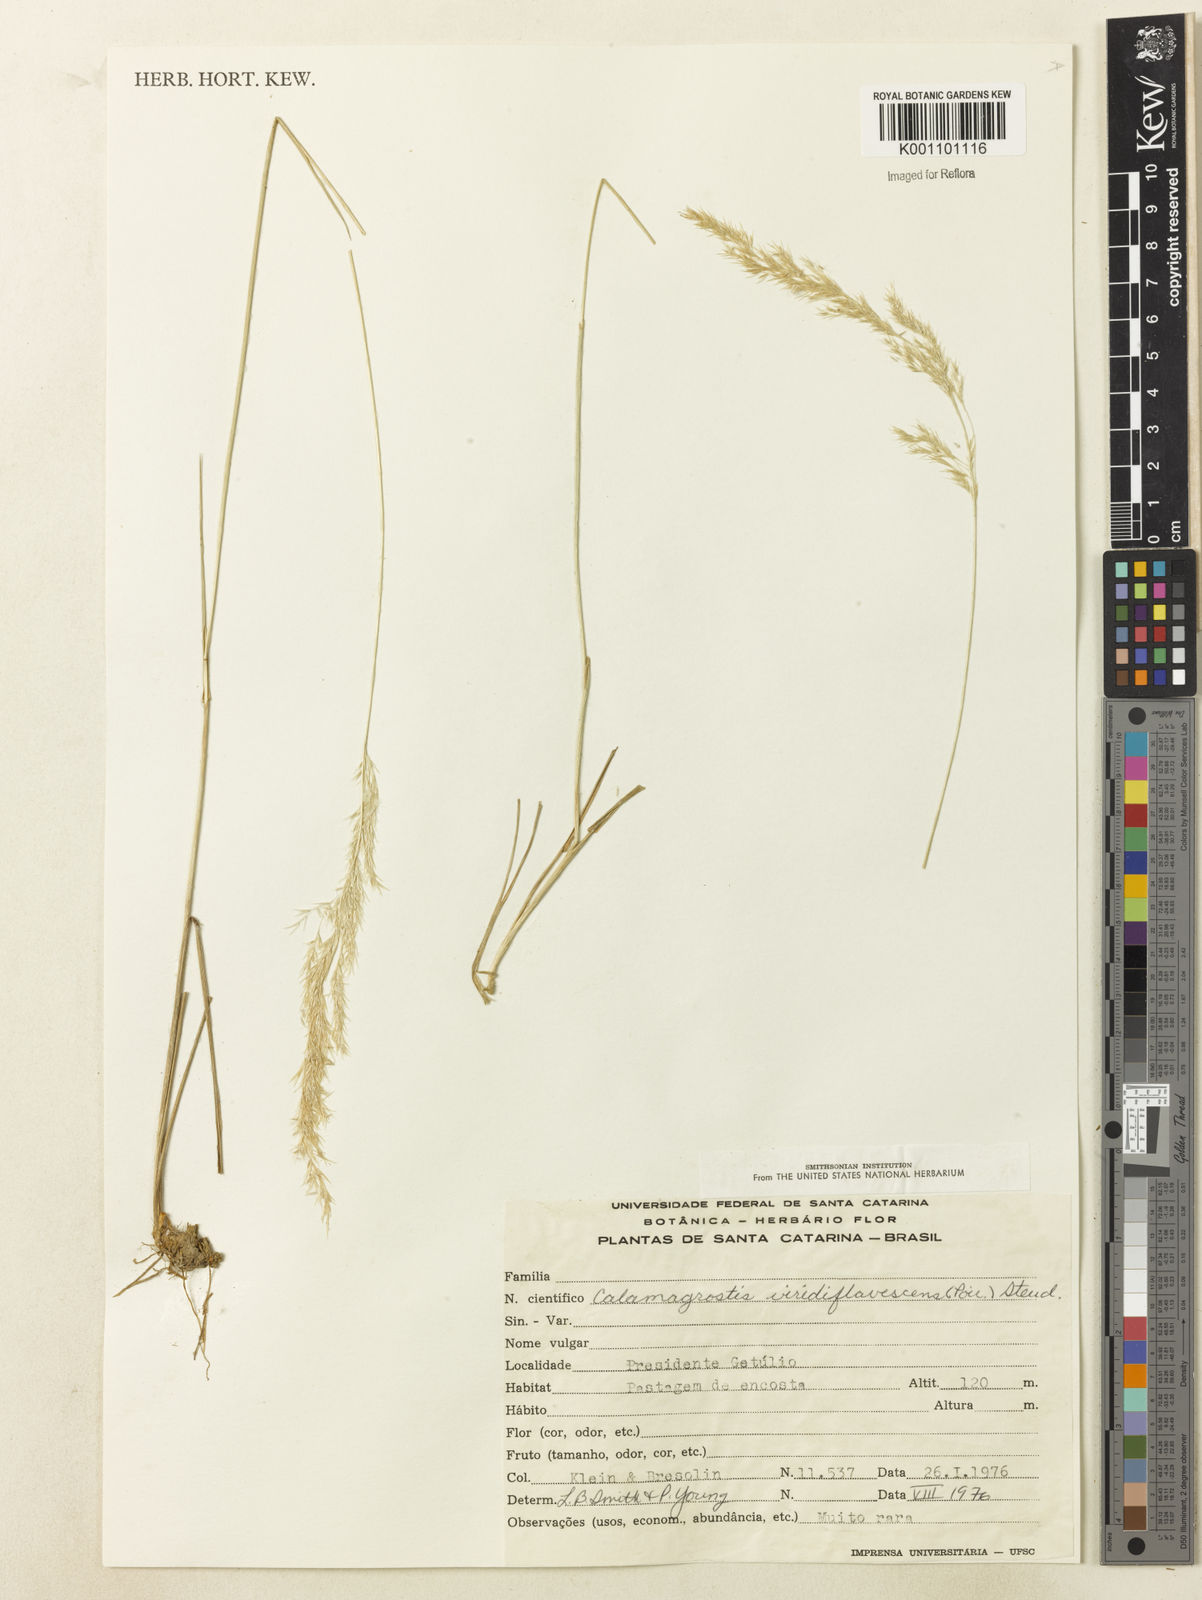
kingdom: Plantae
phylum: Tracheophyta
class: Liliopsida
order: Poales
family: Poaceae
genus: Cinnagrostis
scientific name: Cinnagrostis viridiflavescens
